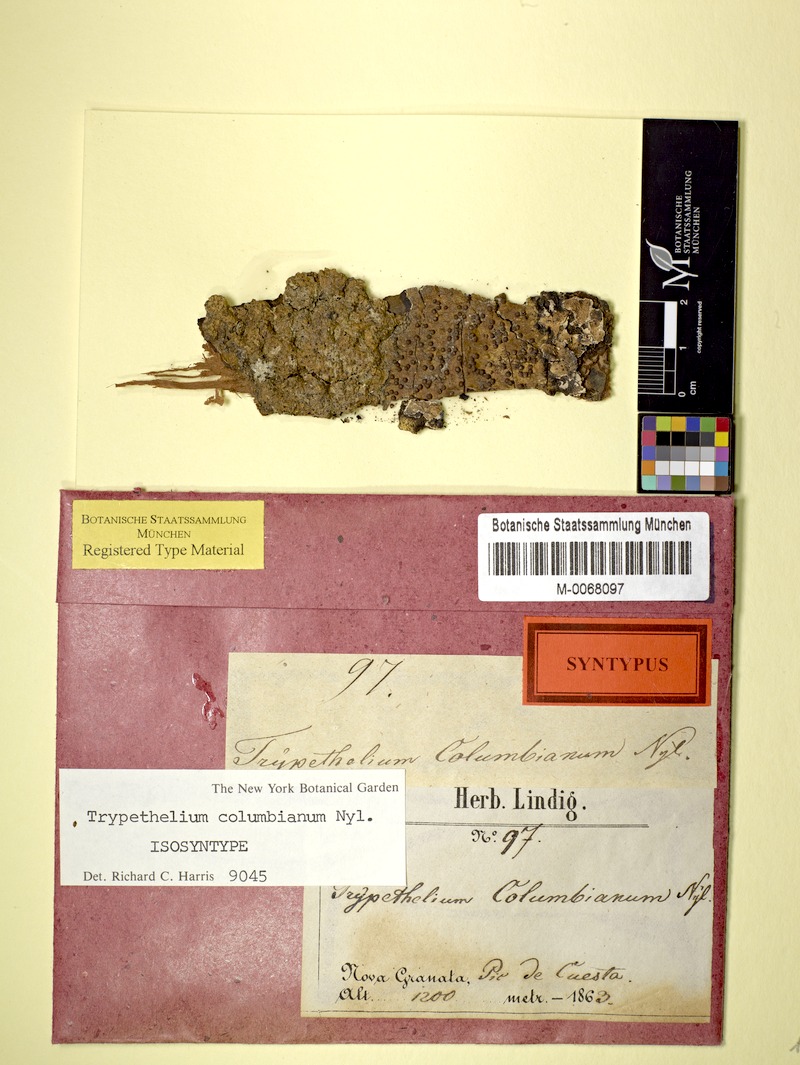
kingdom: Fungi
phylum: Ascomycota
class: Dothideomycetes
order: Trypetheliales
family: Trypetheliaceae
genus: Architrypethelium
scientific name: Architrypethelium columbianum
